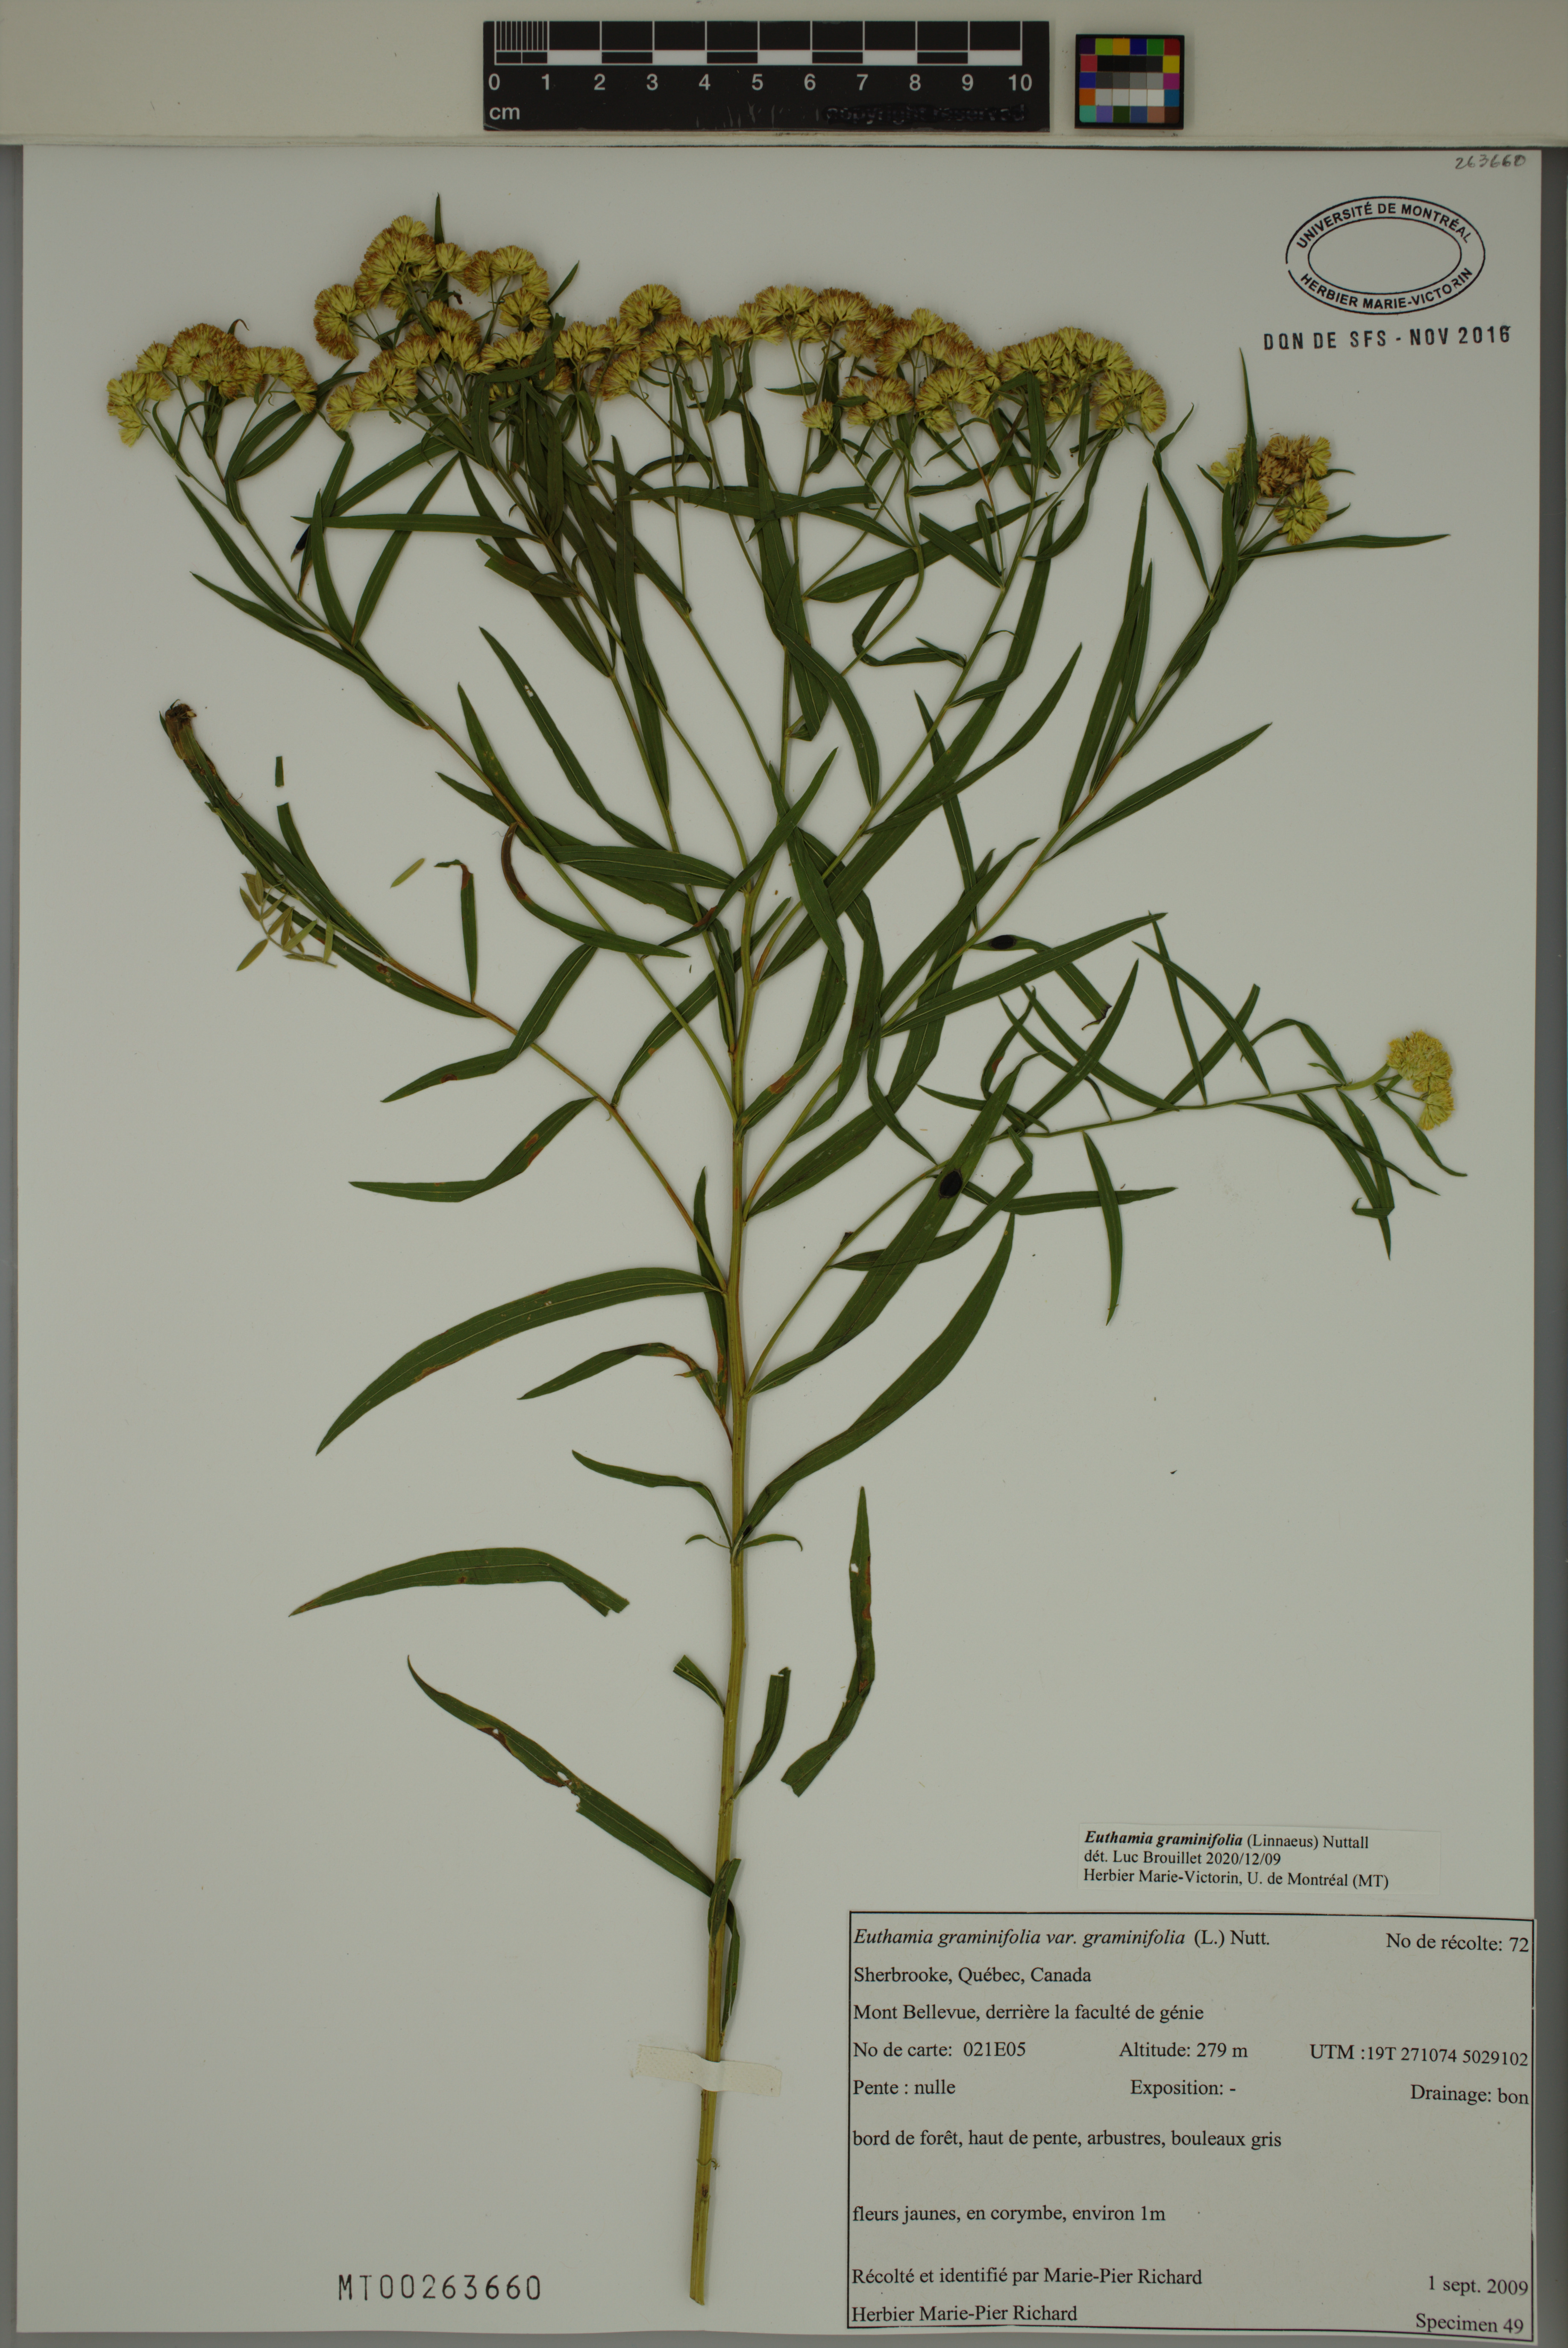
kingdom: Plantae
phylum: Tracheophyta
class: Magnoliopsida
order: Asterales
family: Asteraceae
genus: Euthamia
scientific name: Euthamia graminifolia
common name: Common goldentop
